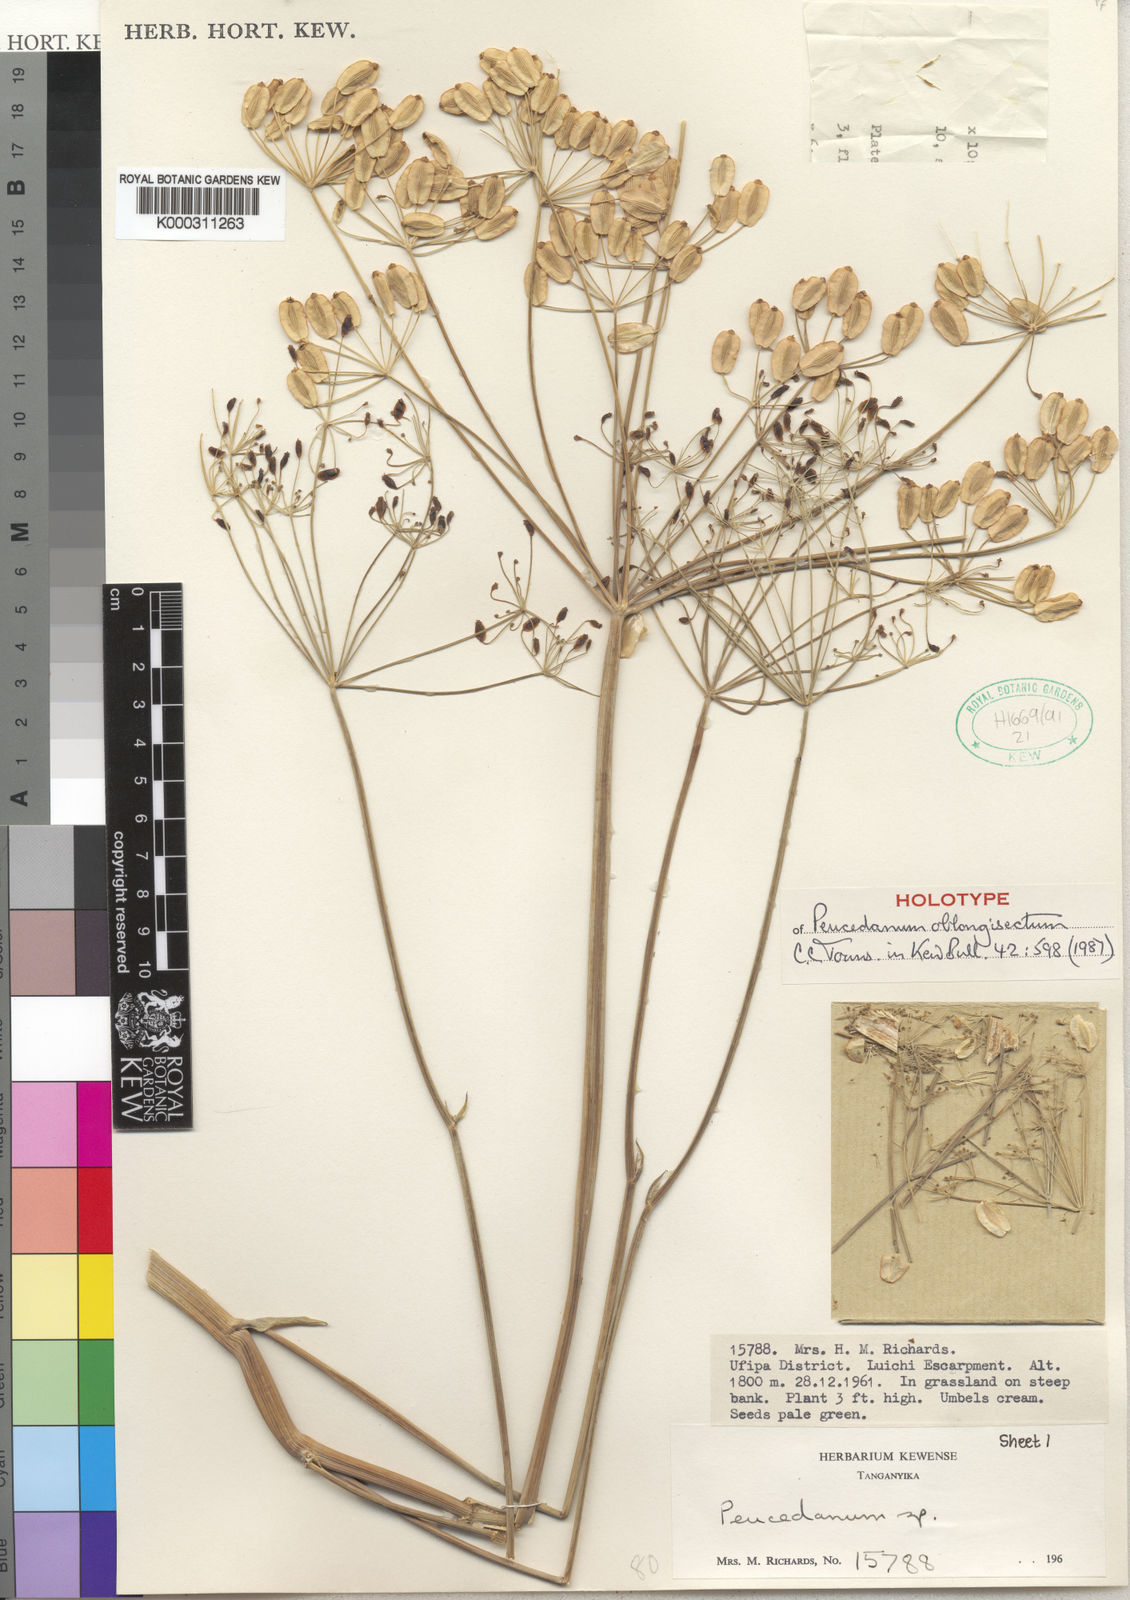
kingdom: Plantae
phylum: Tracheophyta
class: Magnoliopsida
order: Apiales
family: Apiaceae
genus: Lefebvrea
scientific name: Lefebvrea oblongisecta
